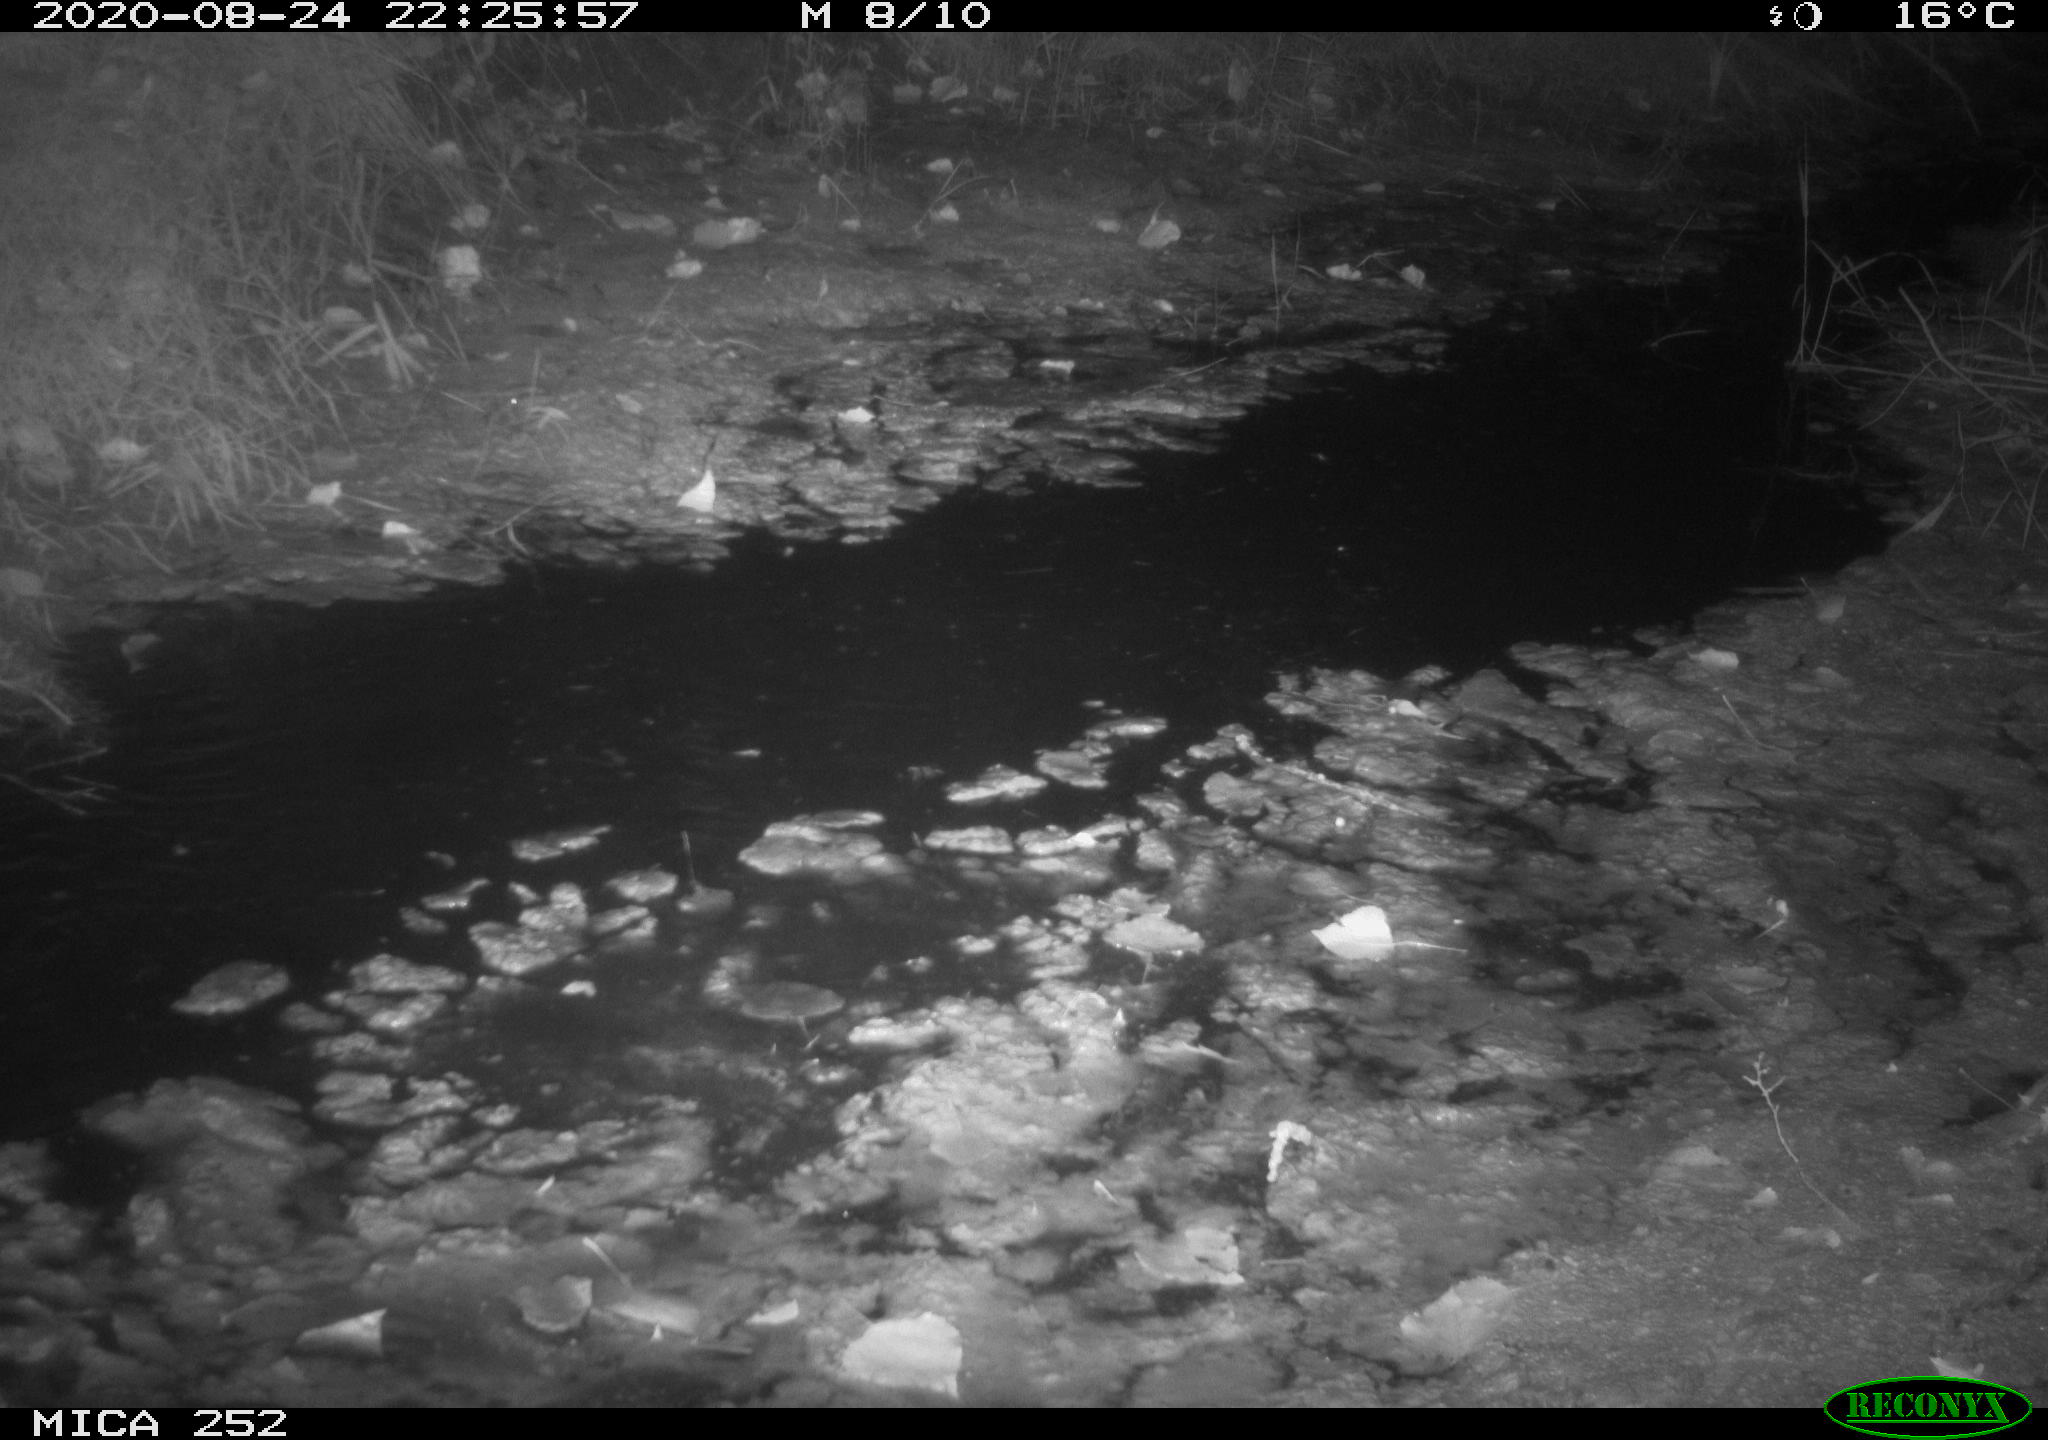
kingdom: Animalia
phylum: Chordata
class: Mammalia
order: Rodentia
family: Castoridae
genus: Castor
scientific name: Castor fiber
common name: Eurasian beaver
